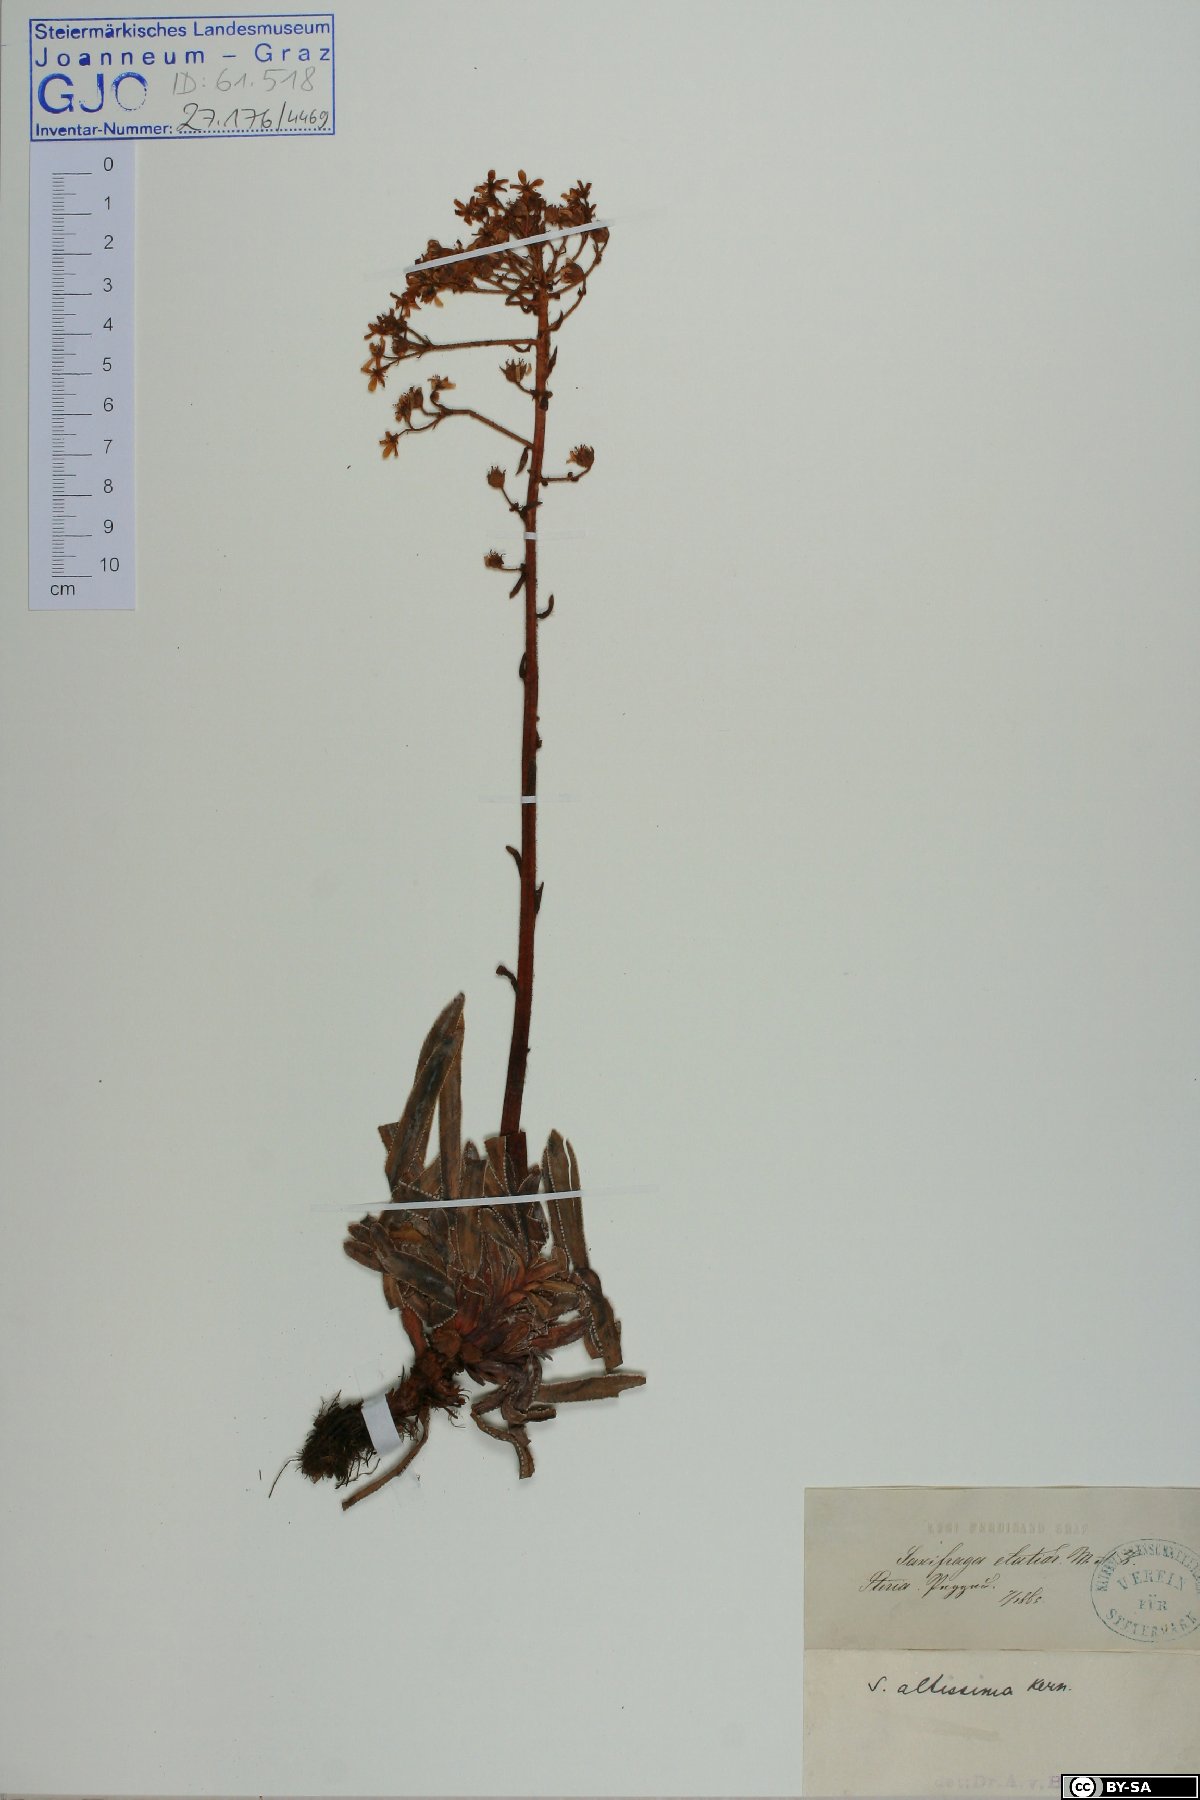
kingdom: Plantae
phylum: Tracheophyta
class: Magnoliopsida
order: Saxifragales
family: Saxifragaceae
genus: Saxifraga
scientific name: Saxifraga hostii
